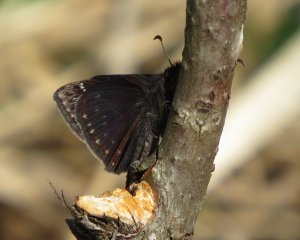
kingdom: Animalia
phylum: Arthropoda
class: Insecta
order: Lepidoptera
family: Hesperiidae
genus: Gesta
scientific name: Gesta
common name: Wild Indigo Duskywing
